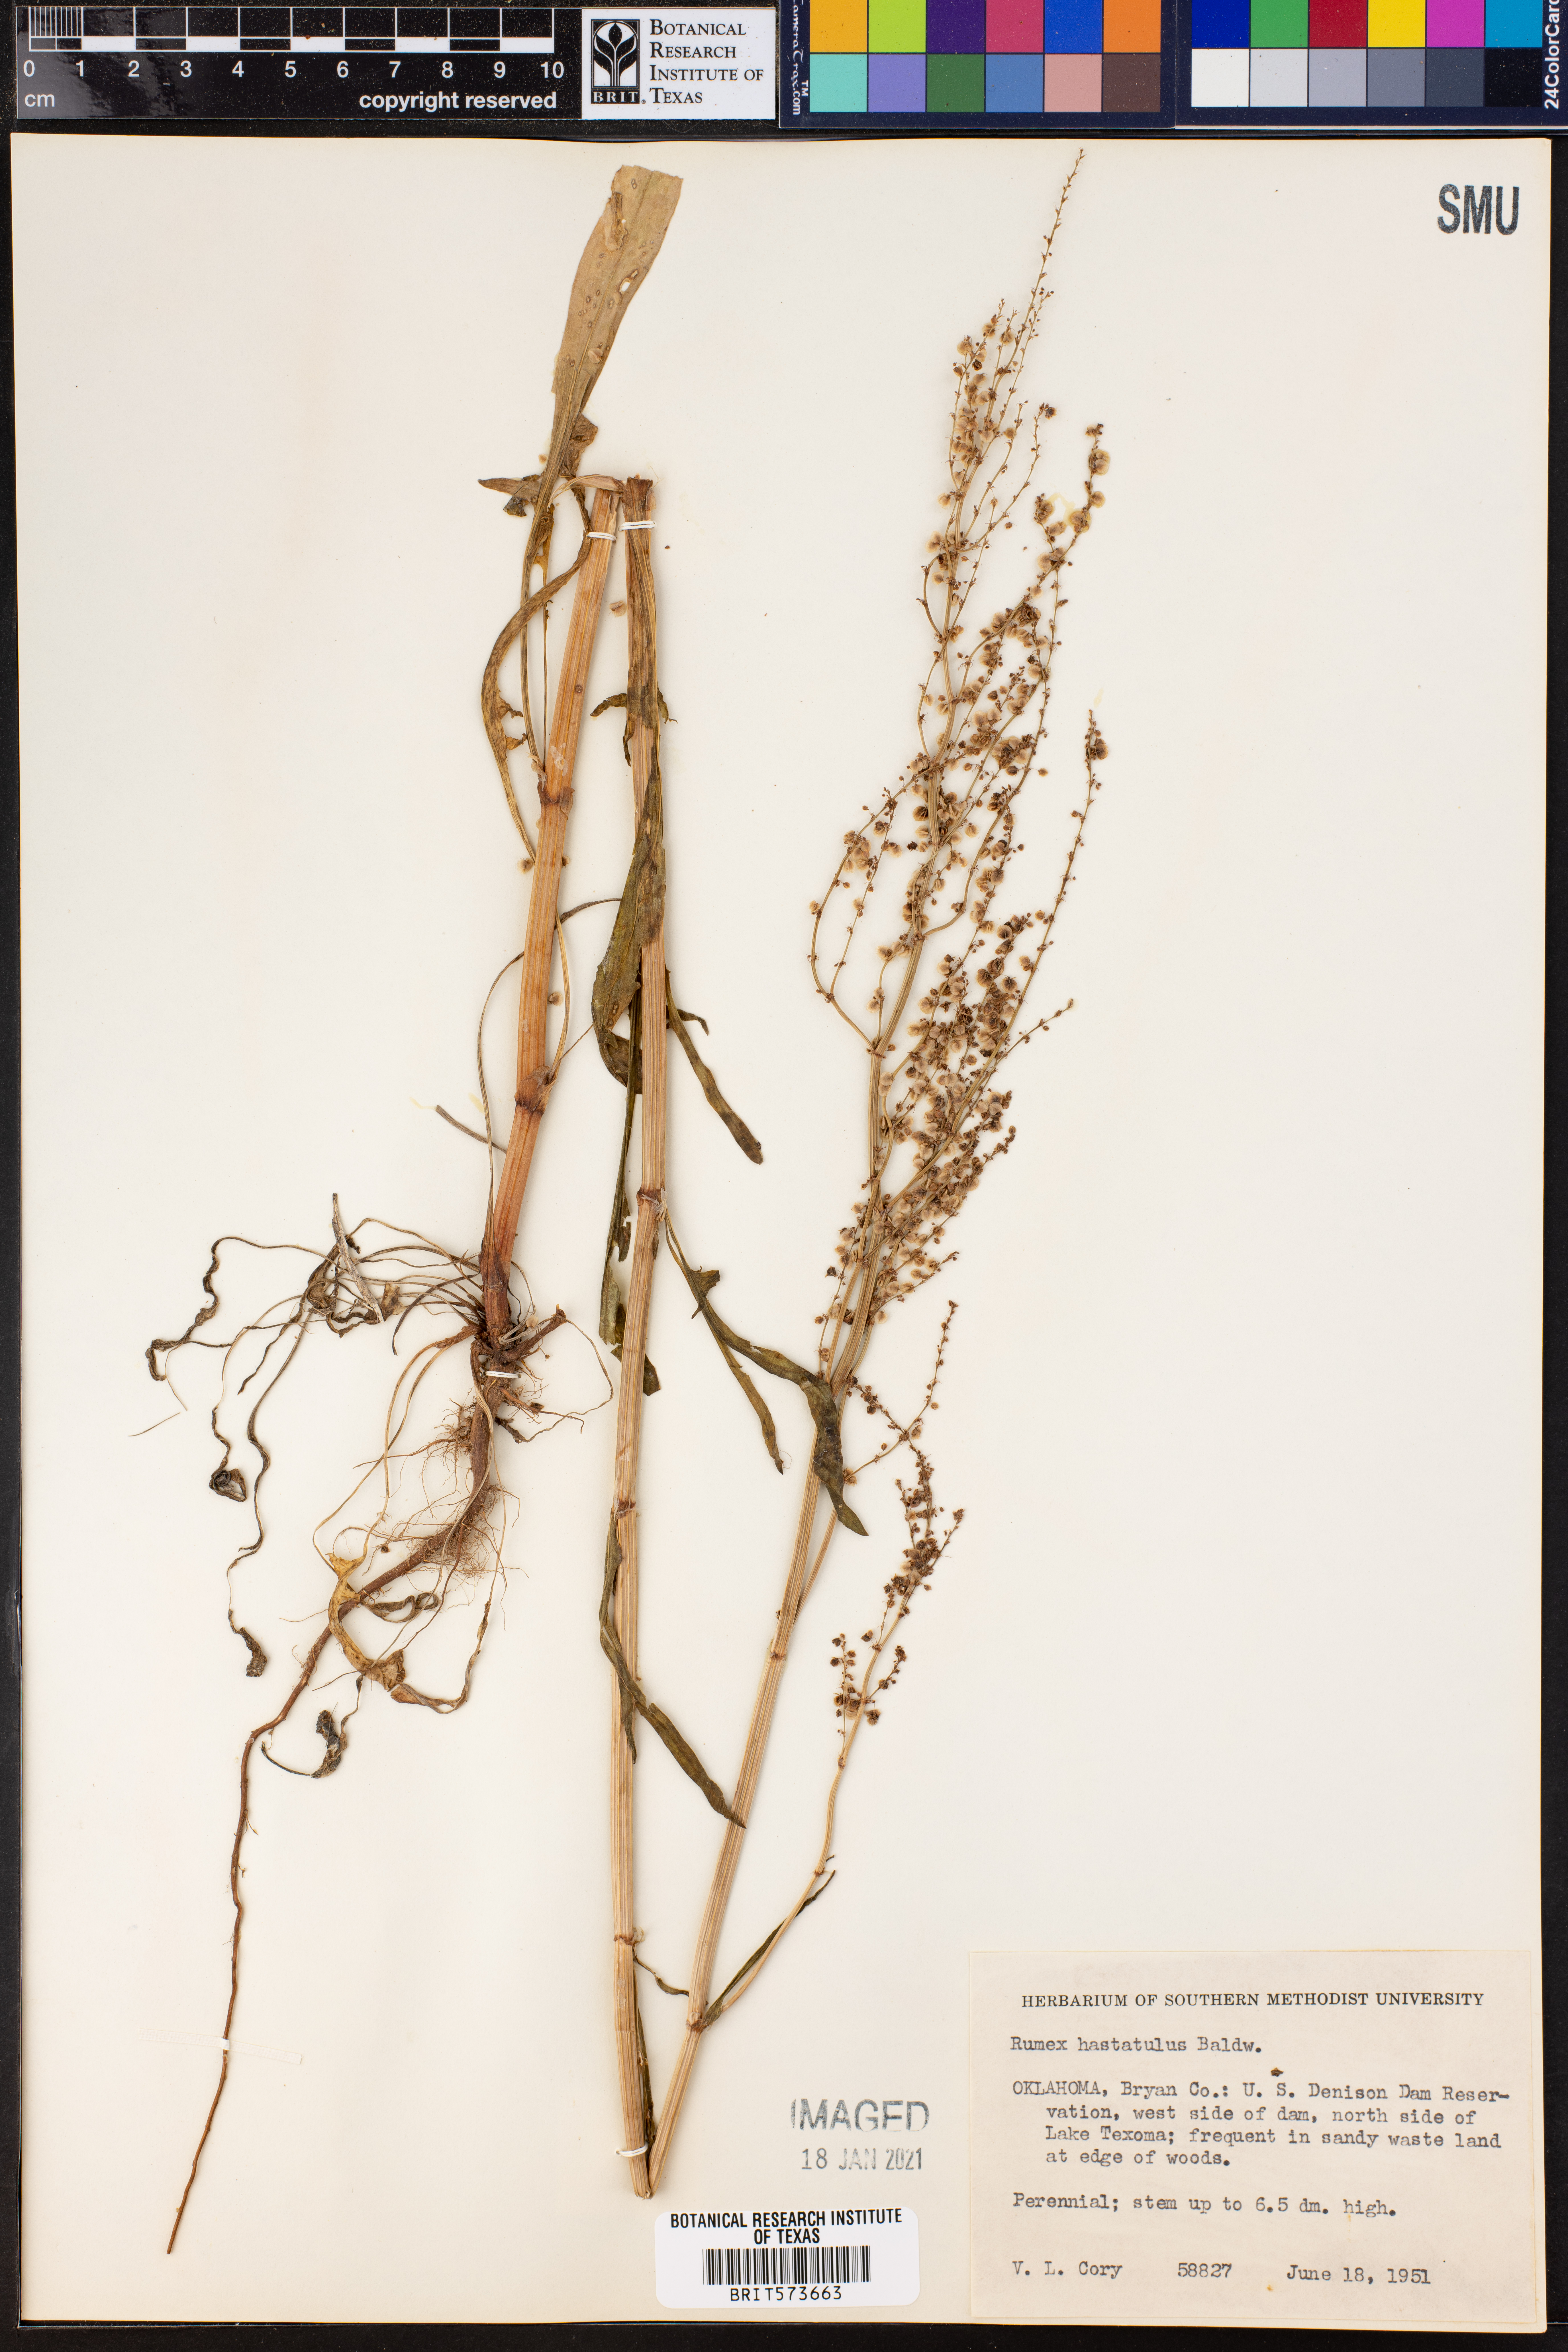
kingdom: Plantae
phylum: Tracheophyta
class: Magnoliopsida
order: Caryophyllales
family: Polygonaceae
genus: Rumex
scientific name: Rumex hastatulus
